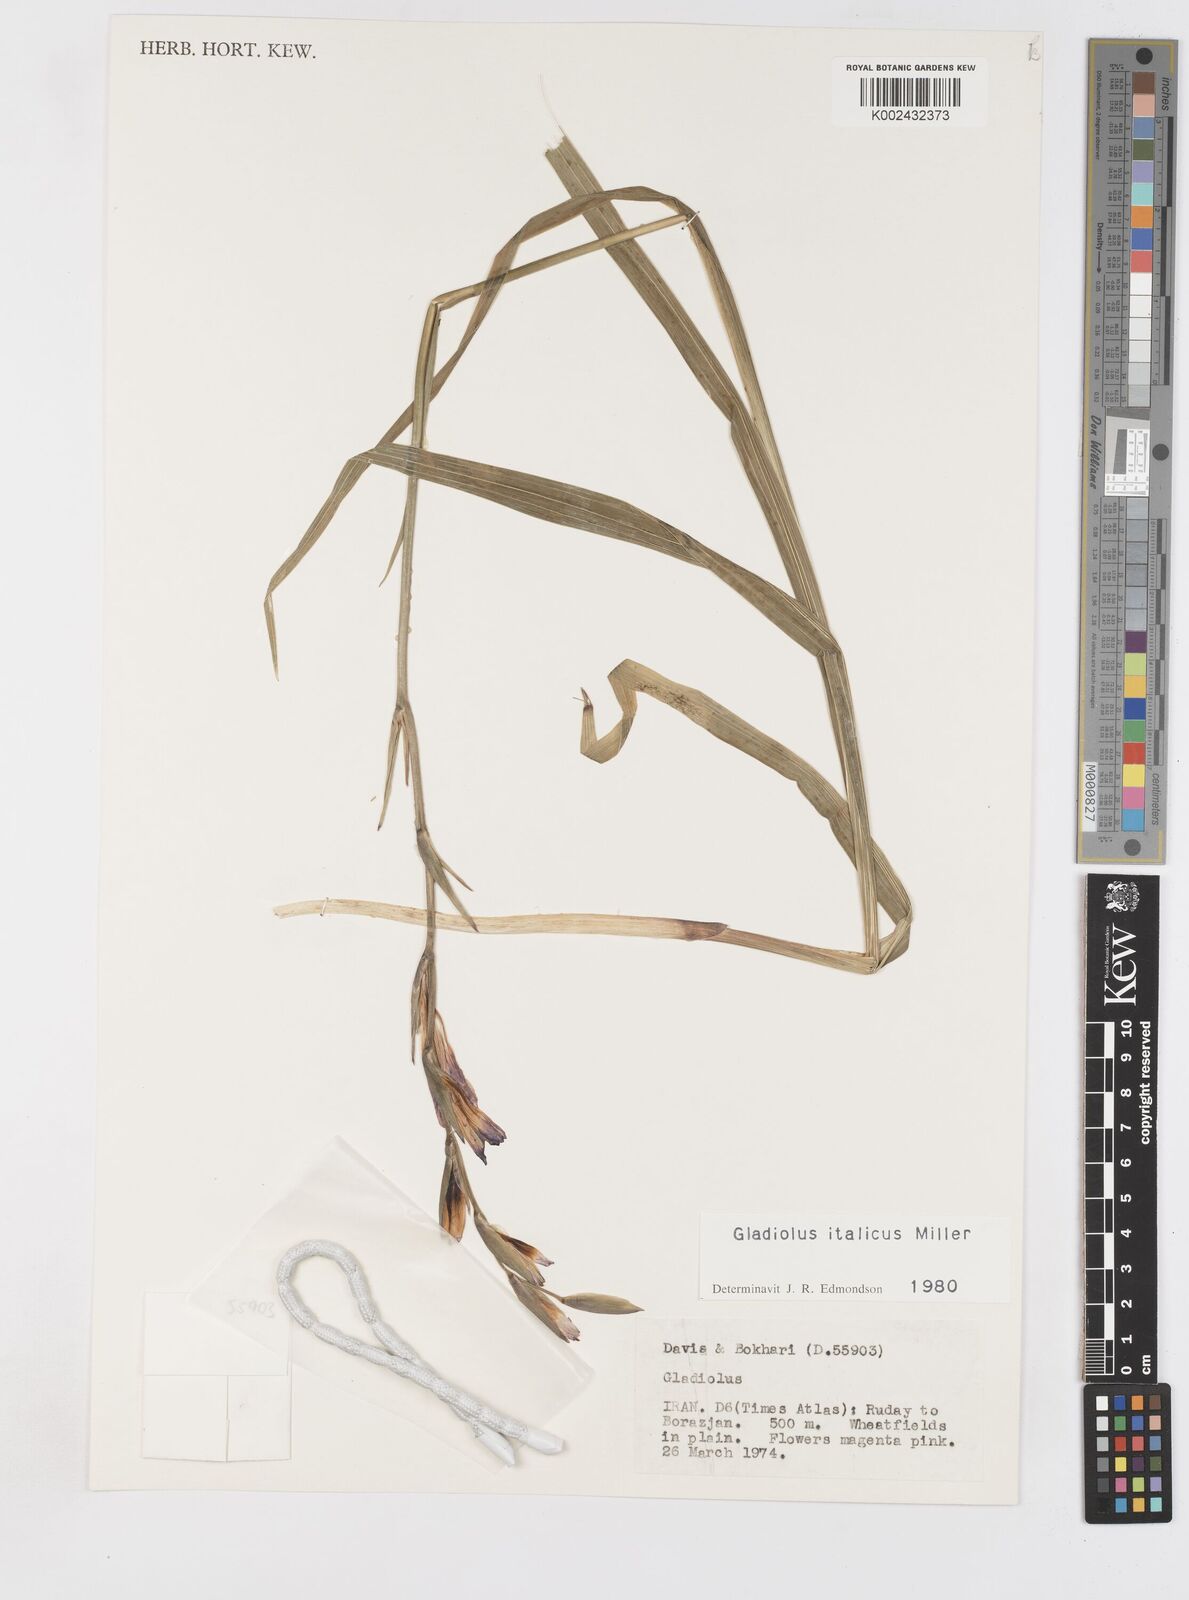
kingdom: Plantae
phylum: Tracheophyta
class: Liliopsida
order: Asparagales
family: Iridaceae
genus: Gladiolus
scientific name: Gladiolus italicus
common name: Field gladiolus
